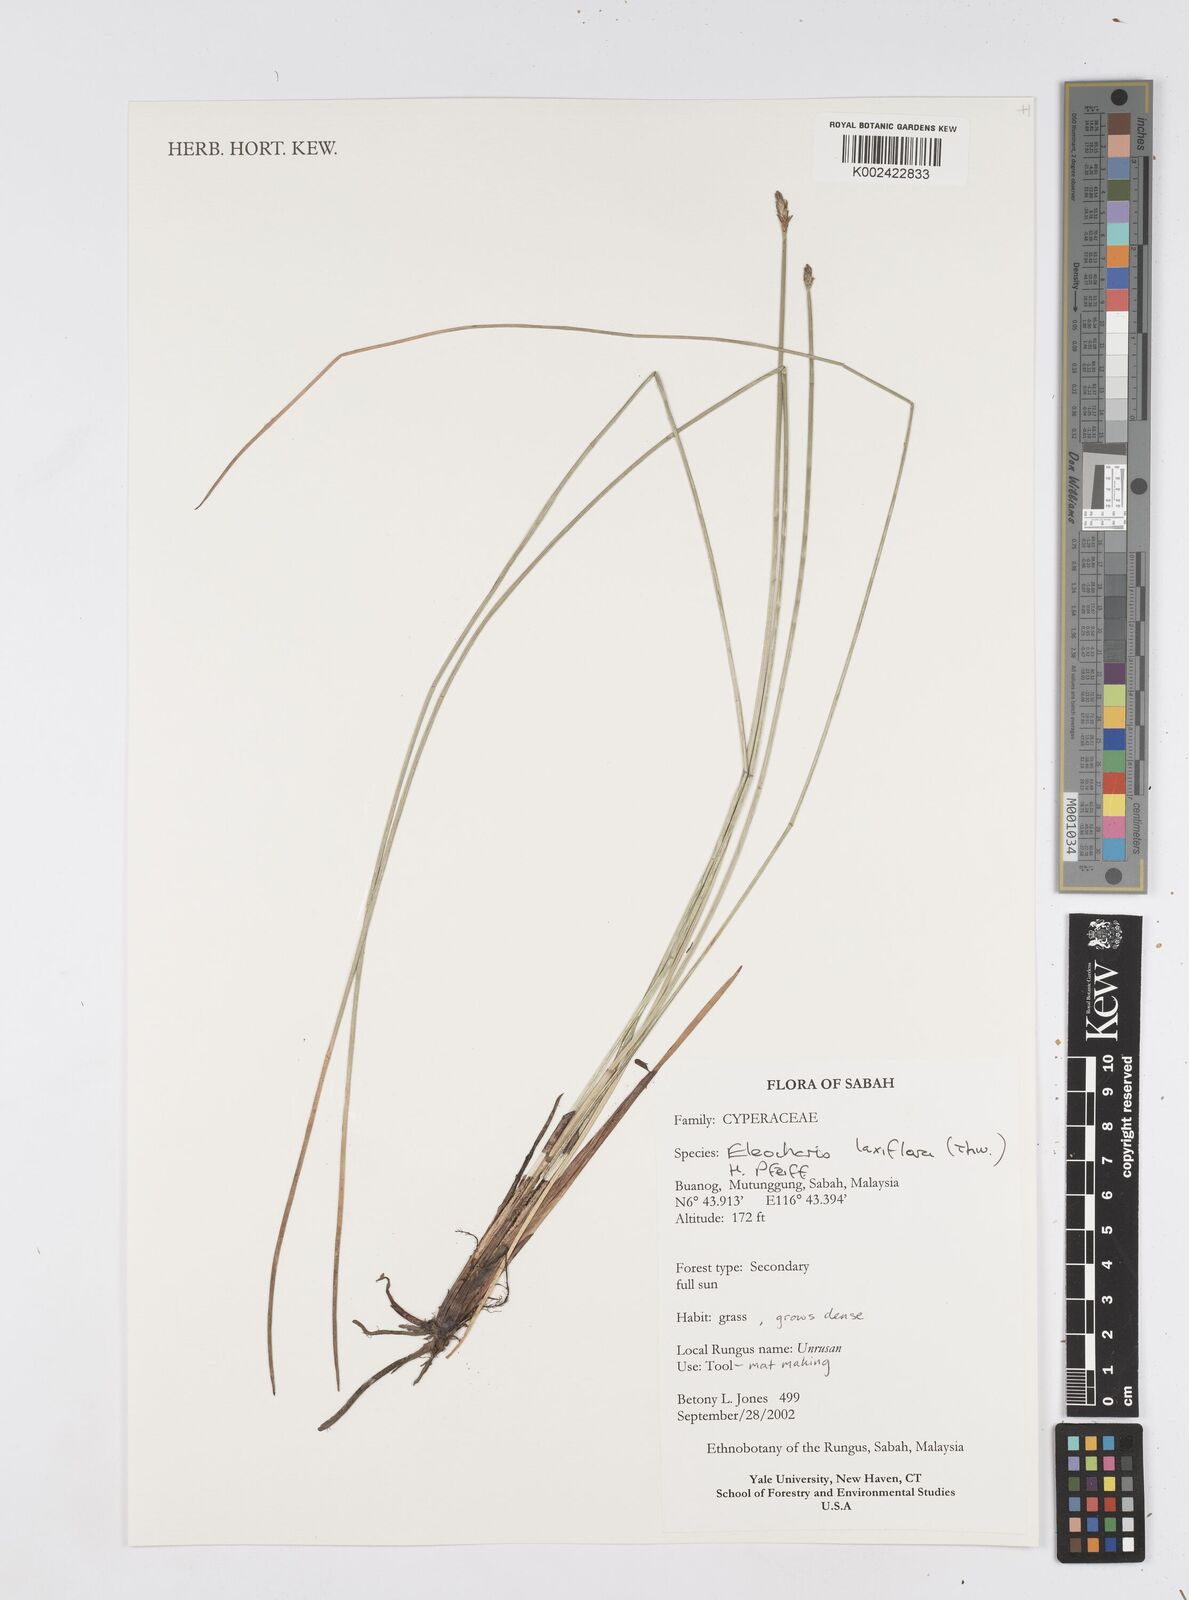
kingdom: Plantae
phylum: Tracheophyta
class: Liliopsida
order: Poales
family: Cyperaceae
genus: Eleocharis
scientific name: Eleocharis ochrostachys
